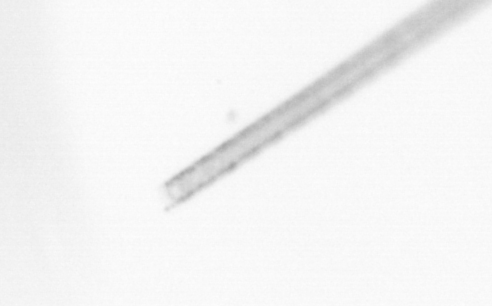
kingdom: Chromista
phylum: Ochrophyta
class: Bacillariophyceae
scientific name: Bacillariophyceae
